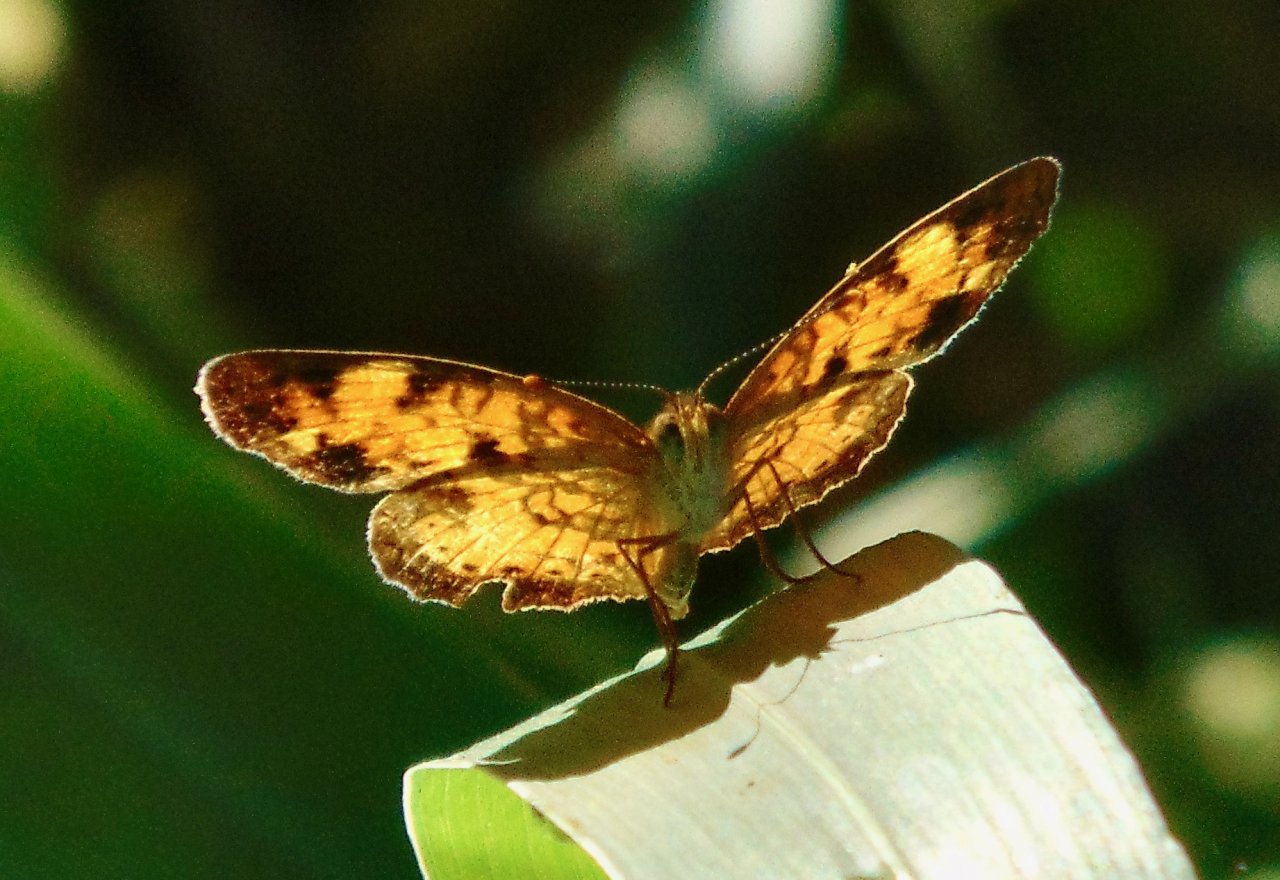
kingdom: Animalia
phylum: Arthropoda
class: Insecta
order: Lepidoptera
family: Nymphalidae
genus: Phyciodes
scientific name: Phyciodes tharos
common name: Pearl Crescent
